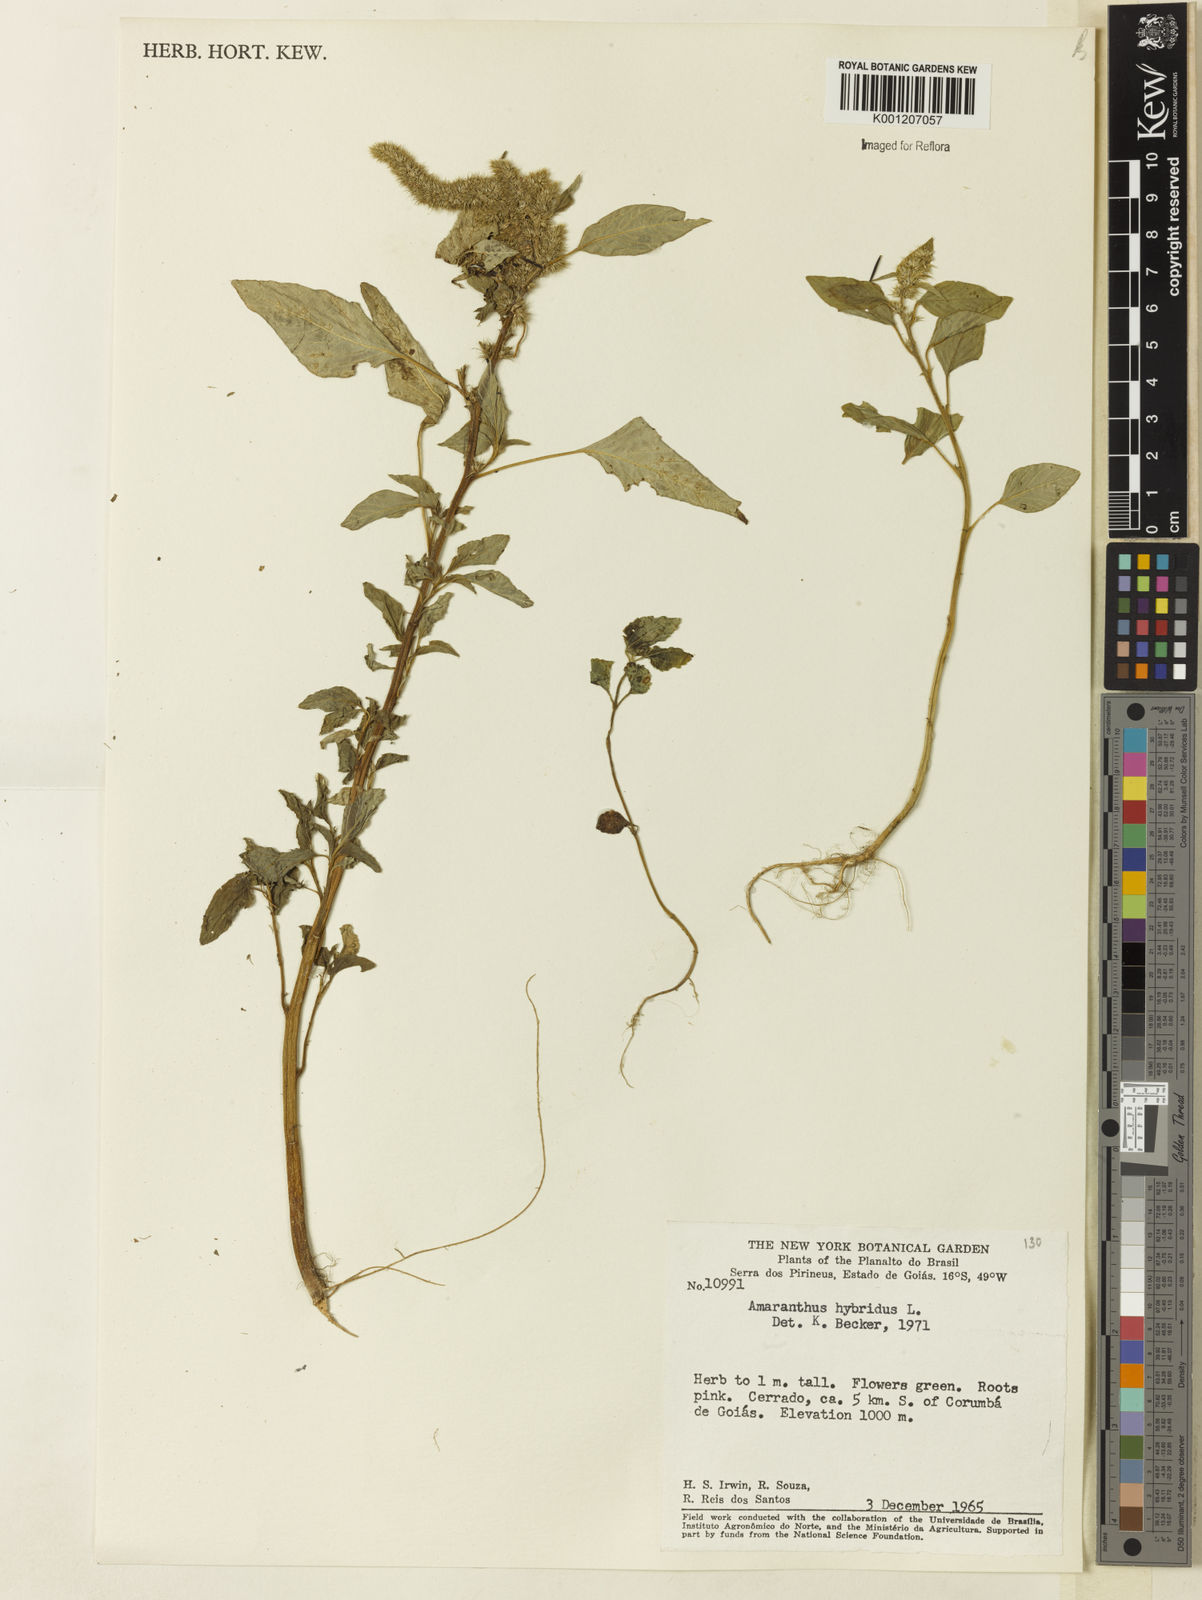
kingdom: Plantae
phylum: Tracheophyta
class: Magnoliopsida
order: Caryophyllales
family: Amaranthaceae
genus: Amaranthus
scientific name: Amaranthus hybridus
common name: Green amaranth
